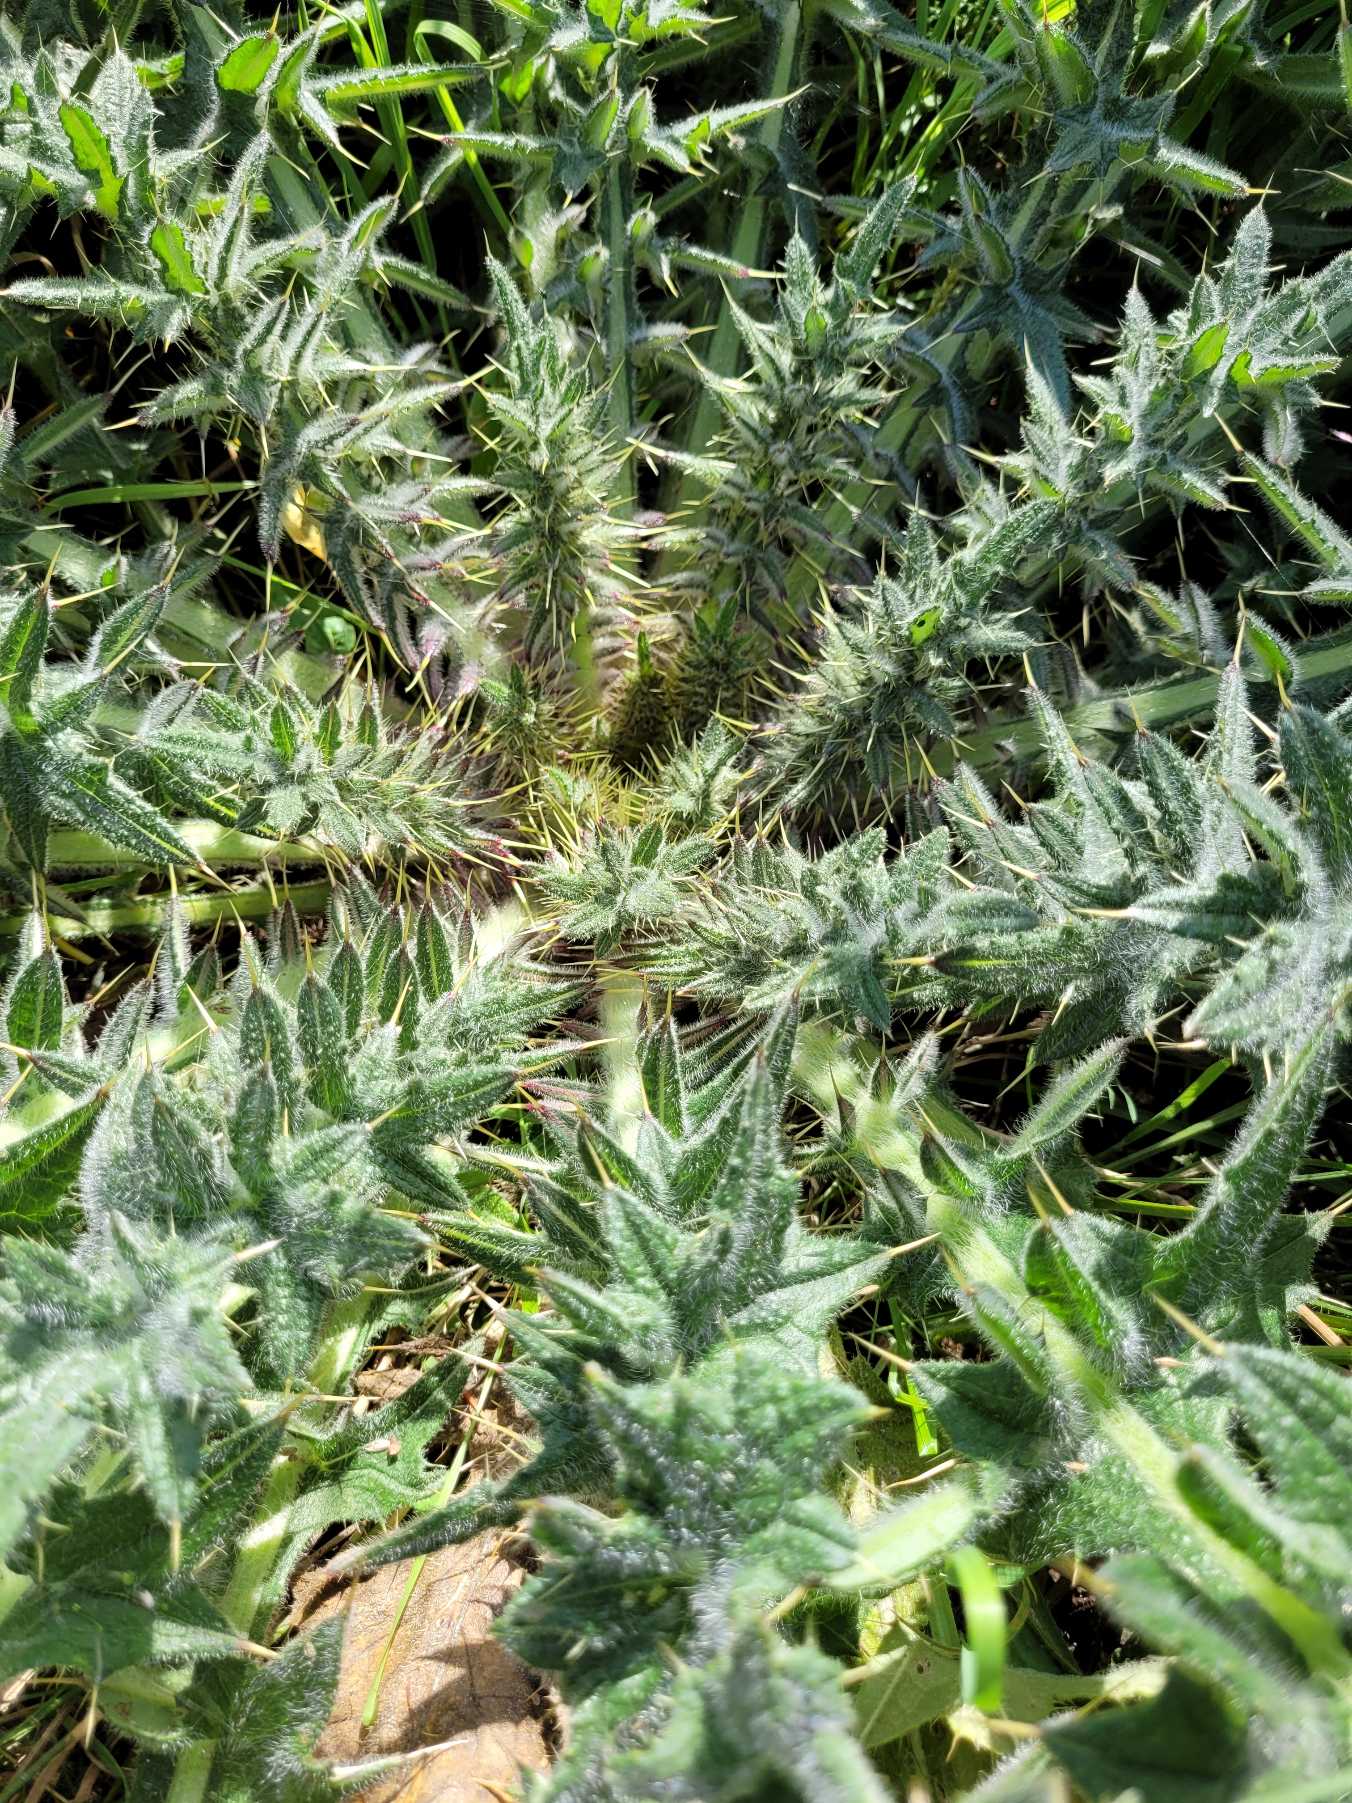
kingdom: Plantae
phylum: Tracheophyta
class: Magnoliopsida
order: Asterales
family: Asteraceae
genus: Cirsium
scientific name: Cirsium vulgare
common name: Horse-tidsel
